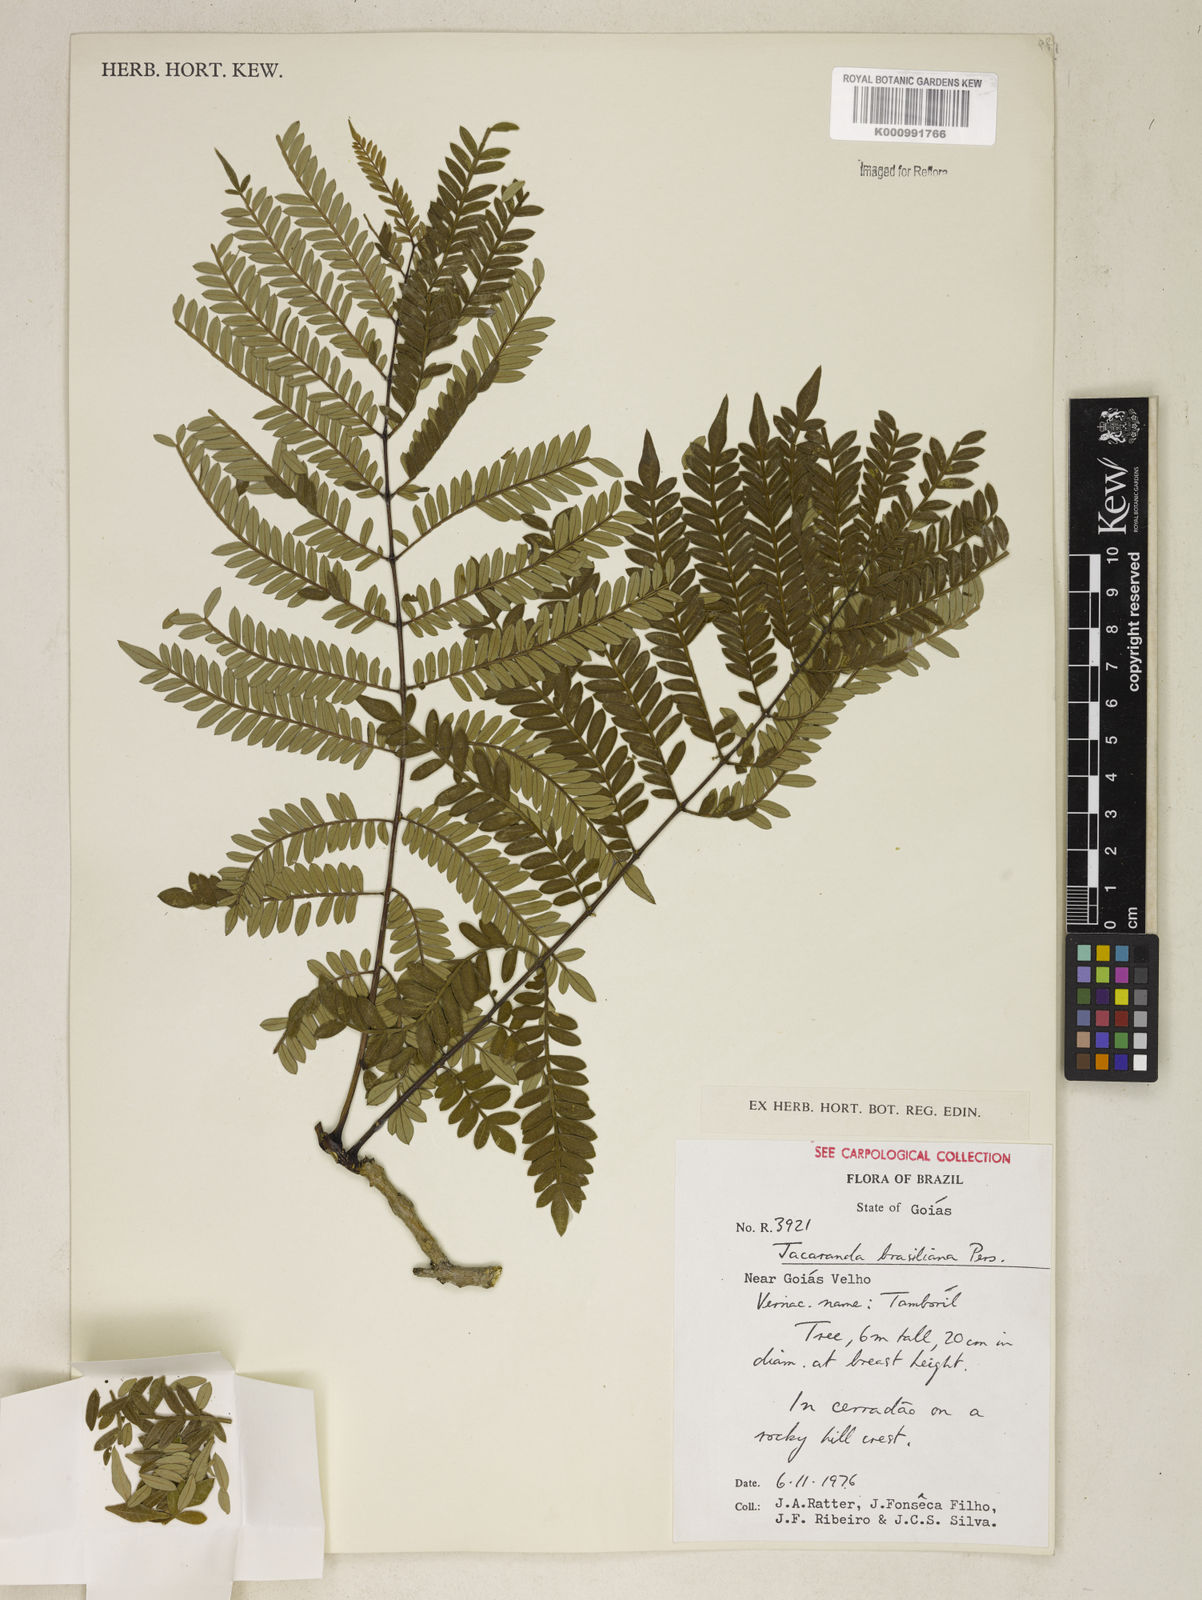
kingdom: Plantae
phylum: Tracheophyta
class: Magnoliopsida
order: Lamiales
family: Bignoniaceae
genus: Jacaranda
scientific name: Jacaranda brasiliana
